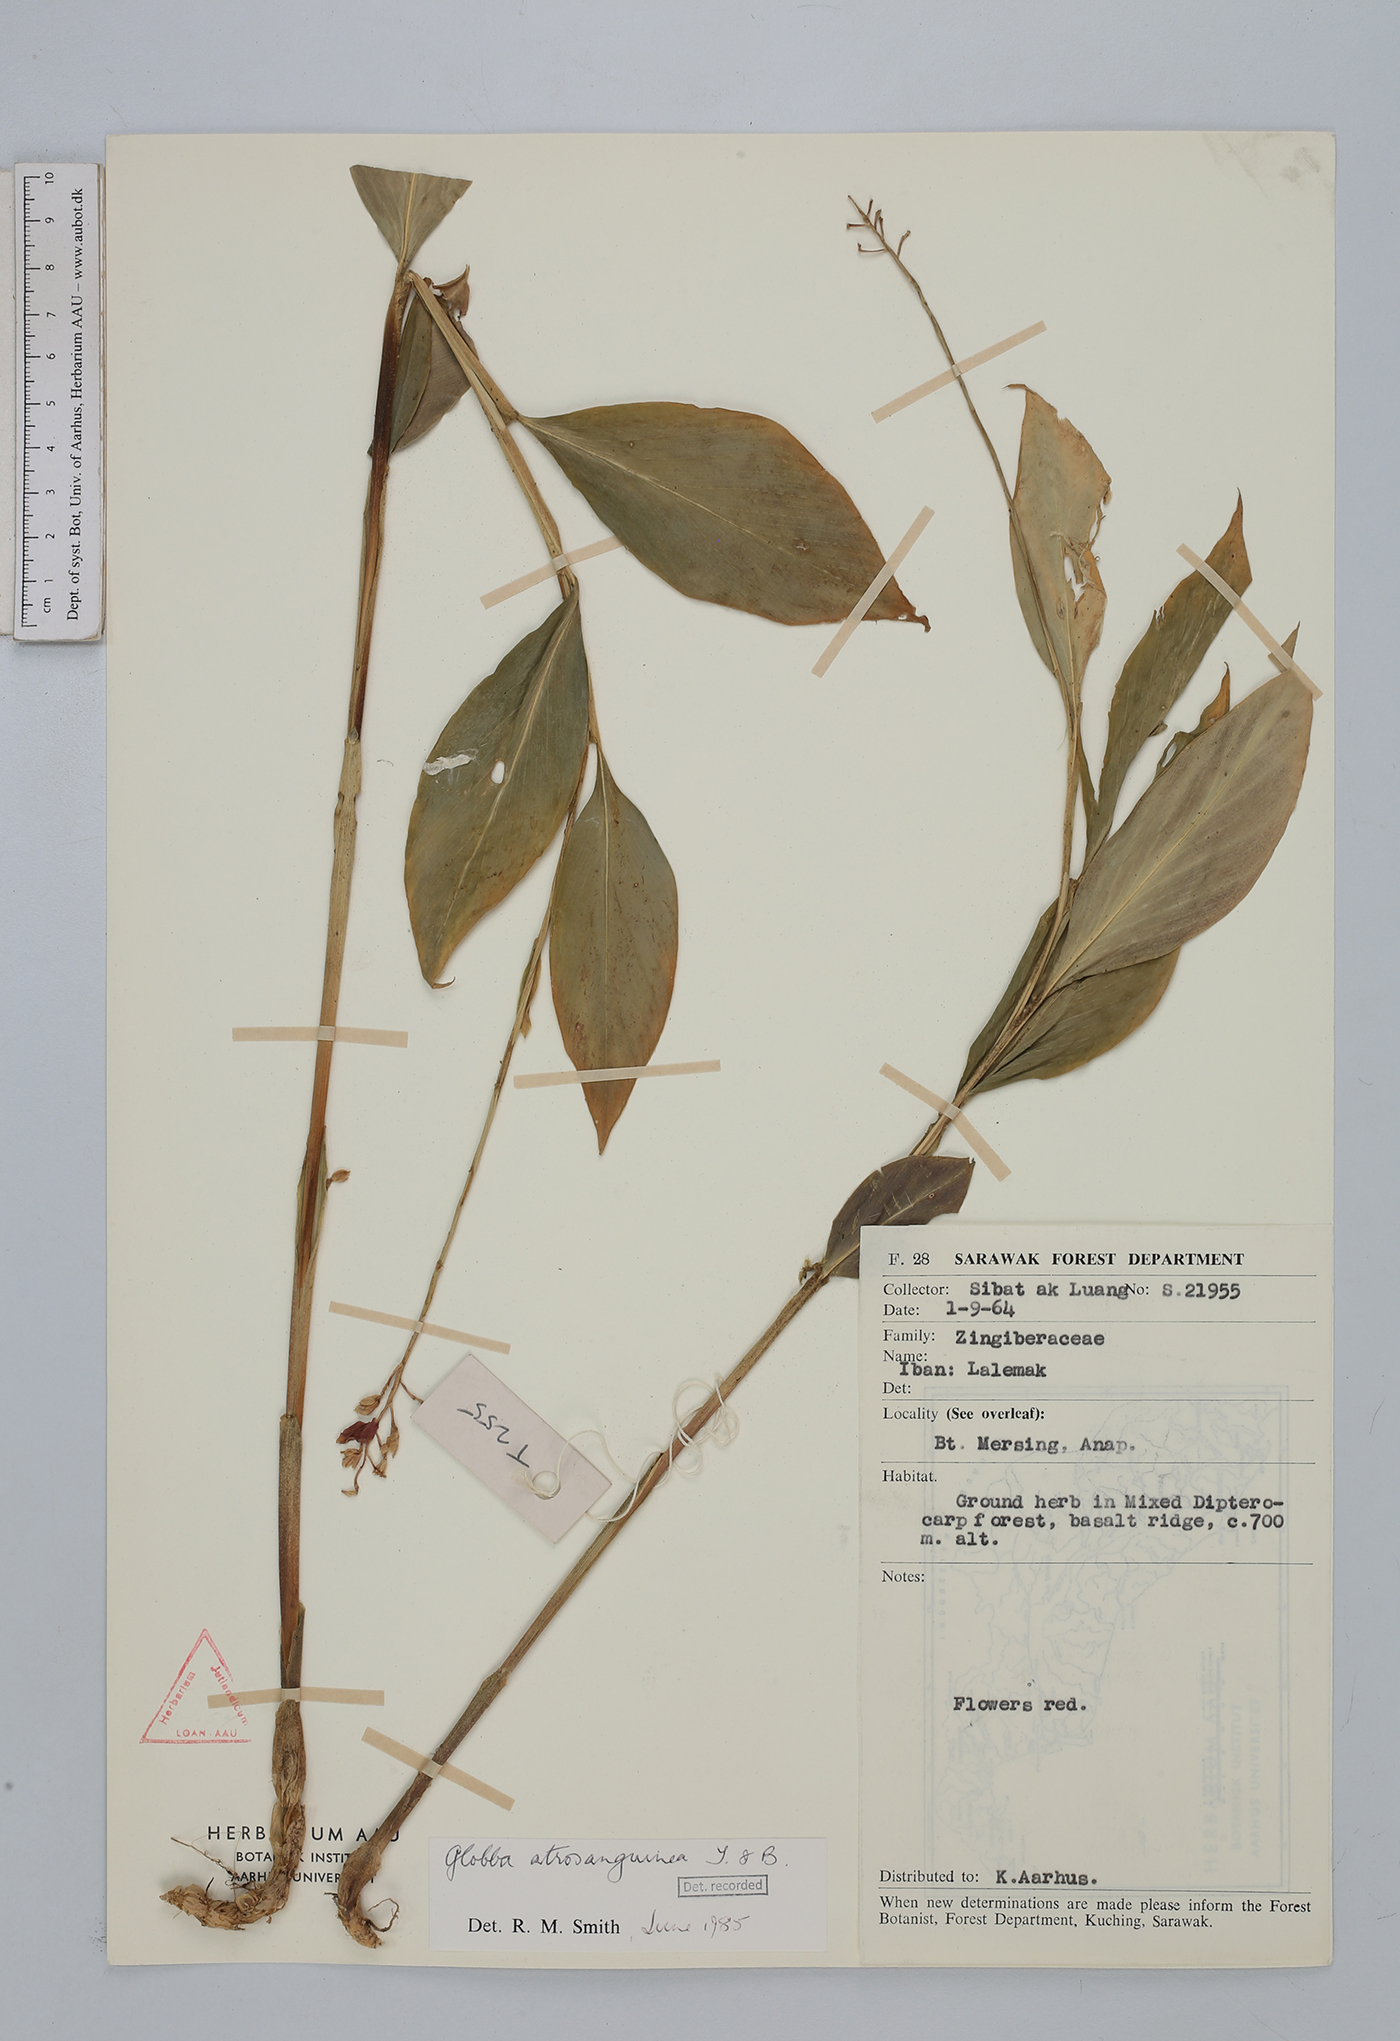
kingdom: Plantae
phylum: Tracheophyta
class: Liliopsida
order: Zingiberales
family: Zingiberaceae
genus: Globba
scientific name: Globba atrosanguinea
